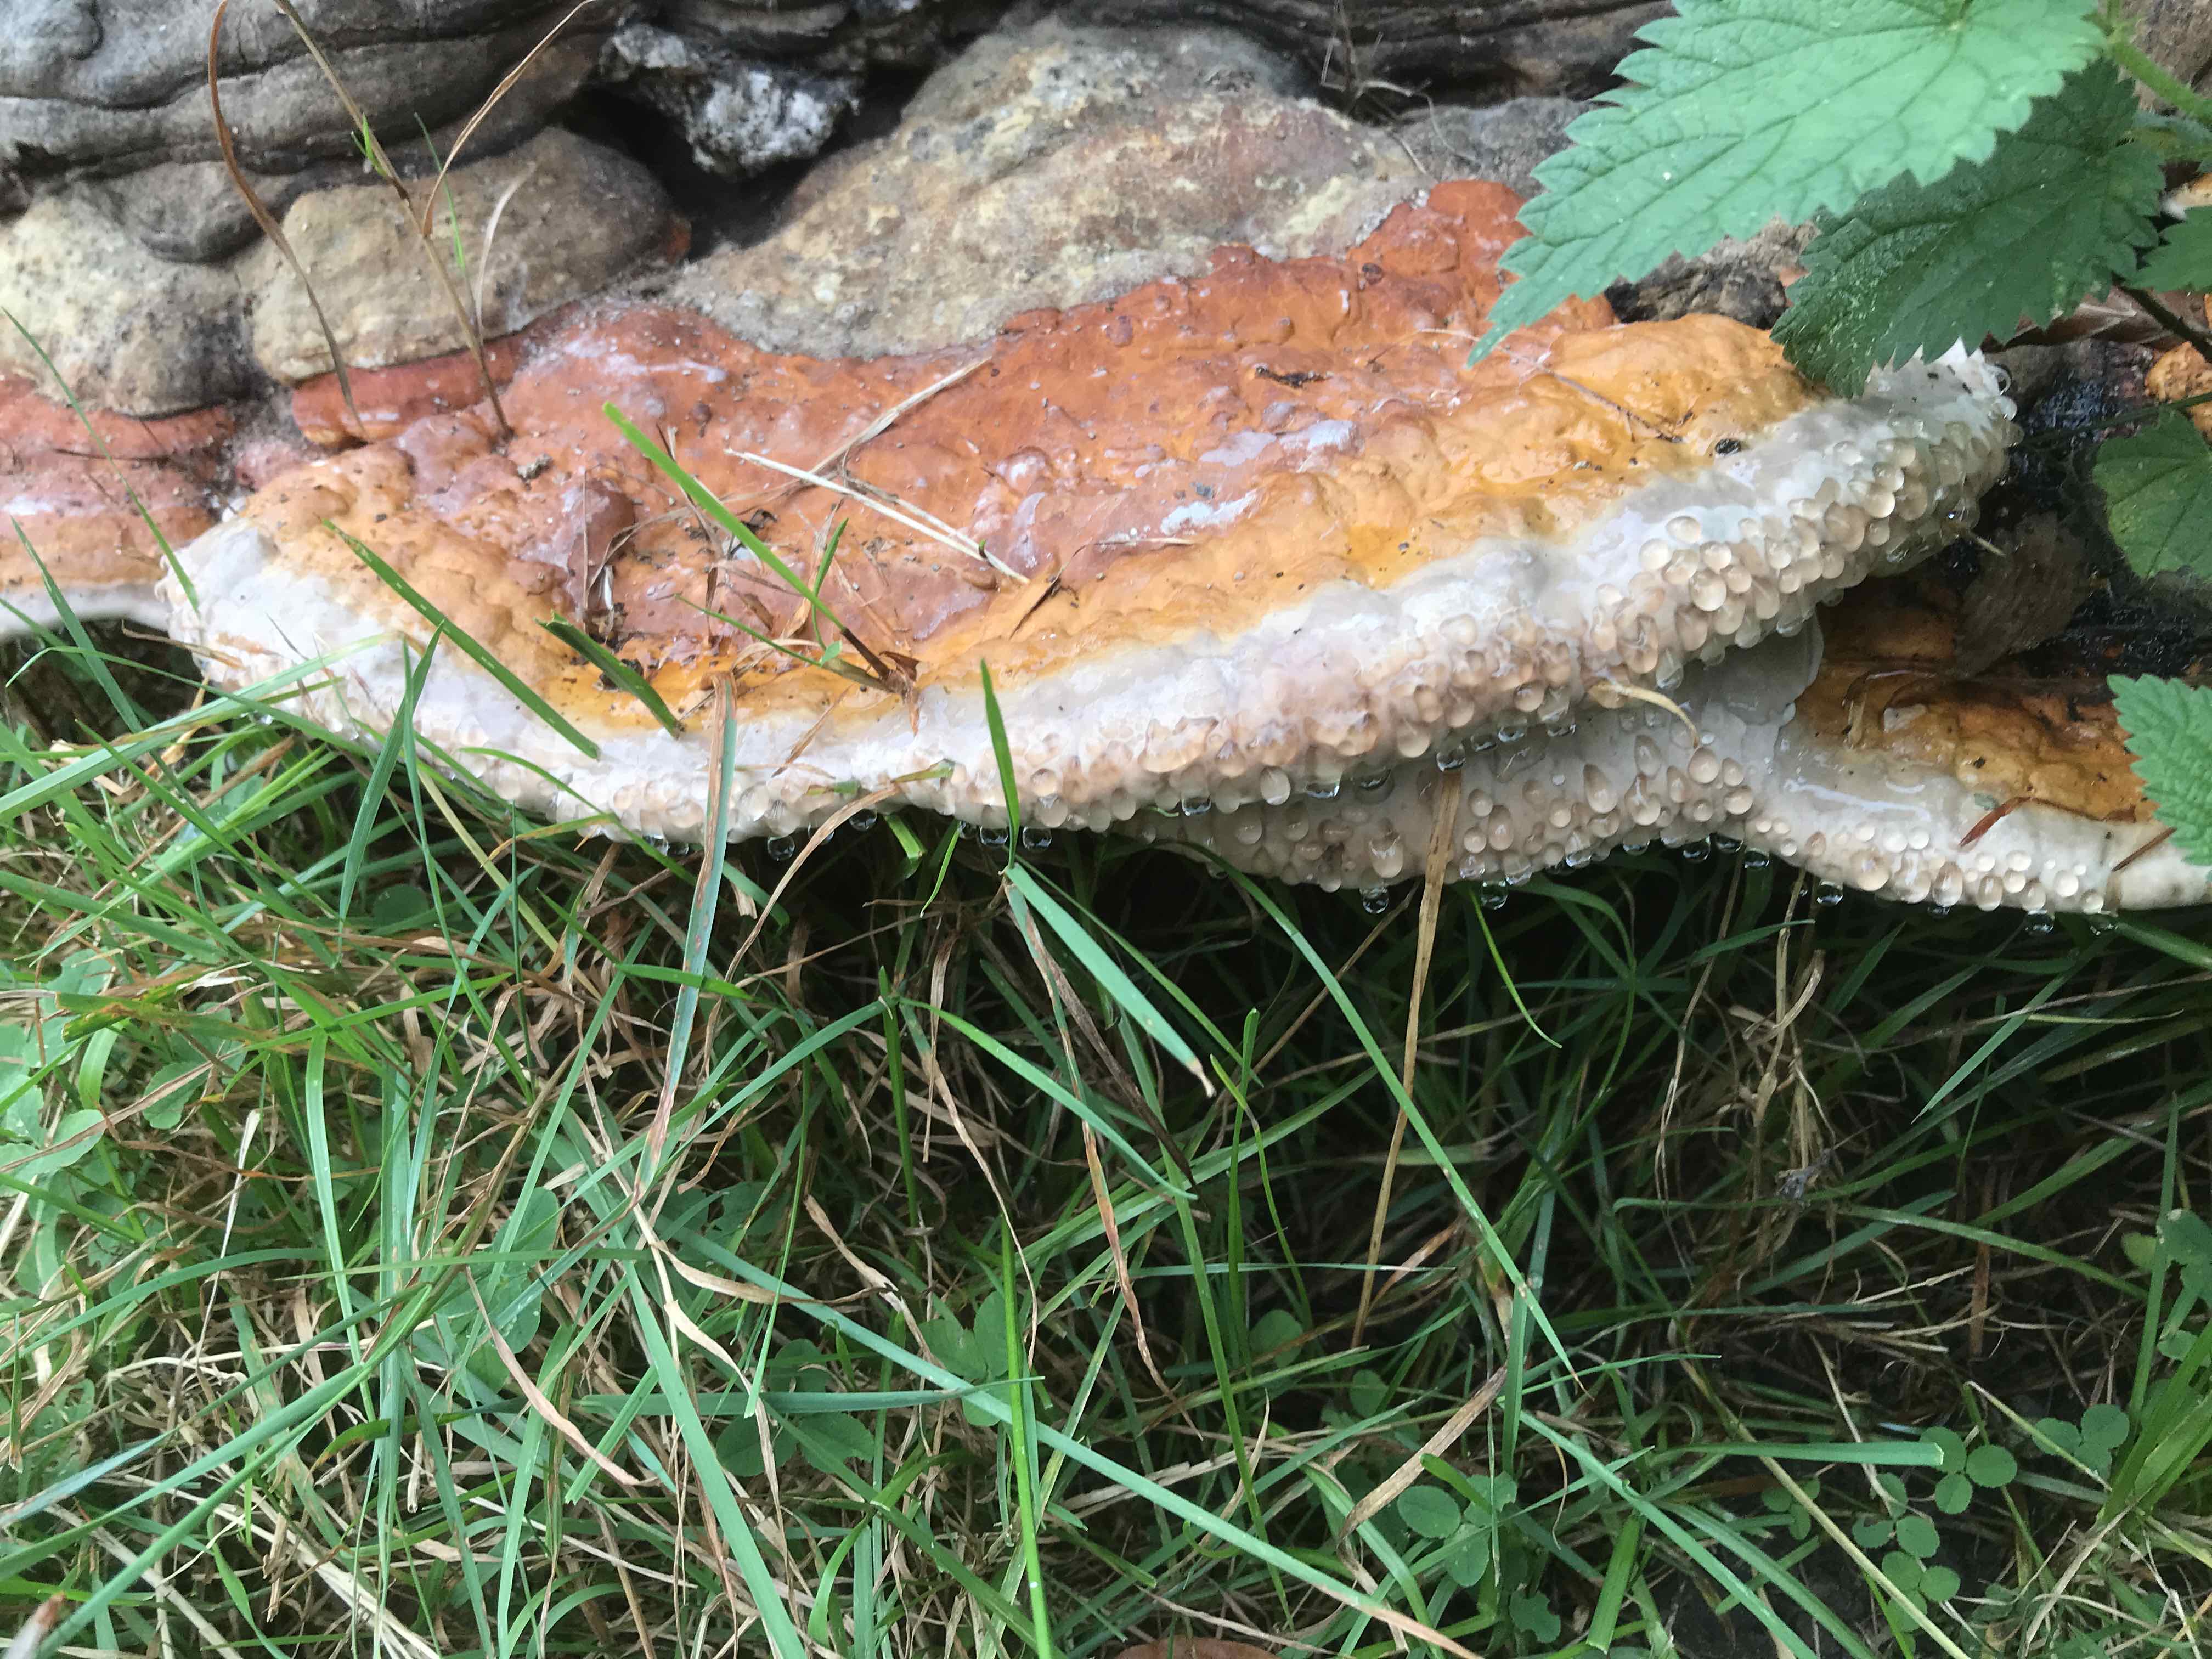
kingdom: Fungi
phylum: Basidiomycota
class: Agaricomycetes
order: Polyporales
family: Fomitopsidaceae
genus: Fomitopsis
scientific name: Fomitopsis pinicola
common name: randbæltet hovporesvamp
